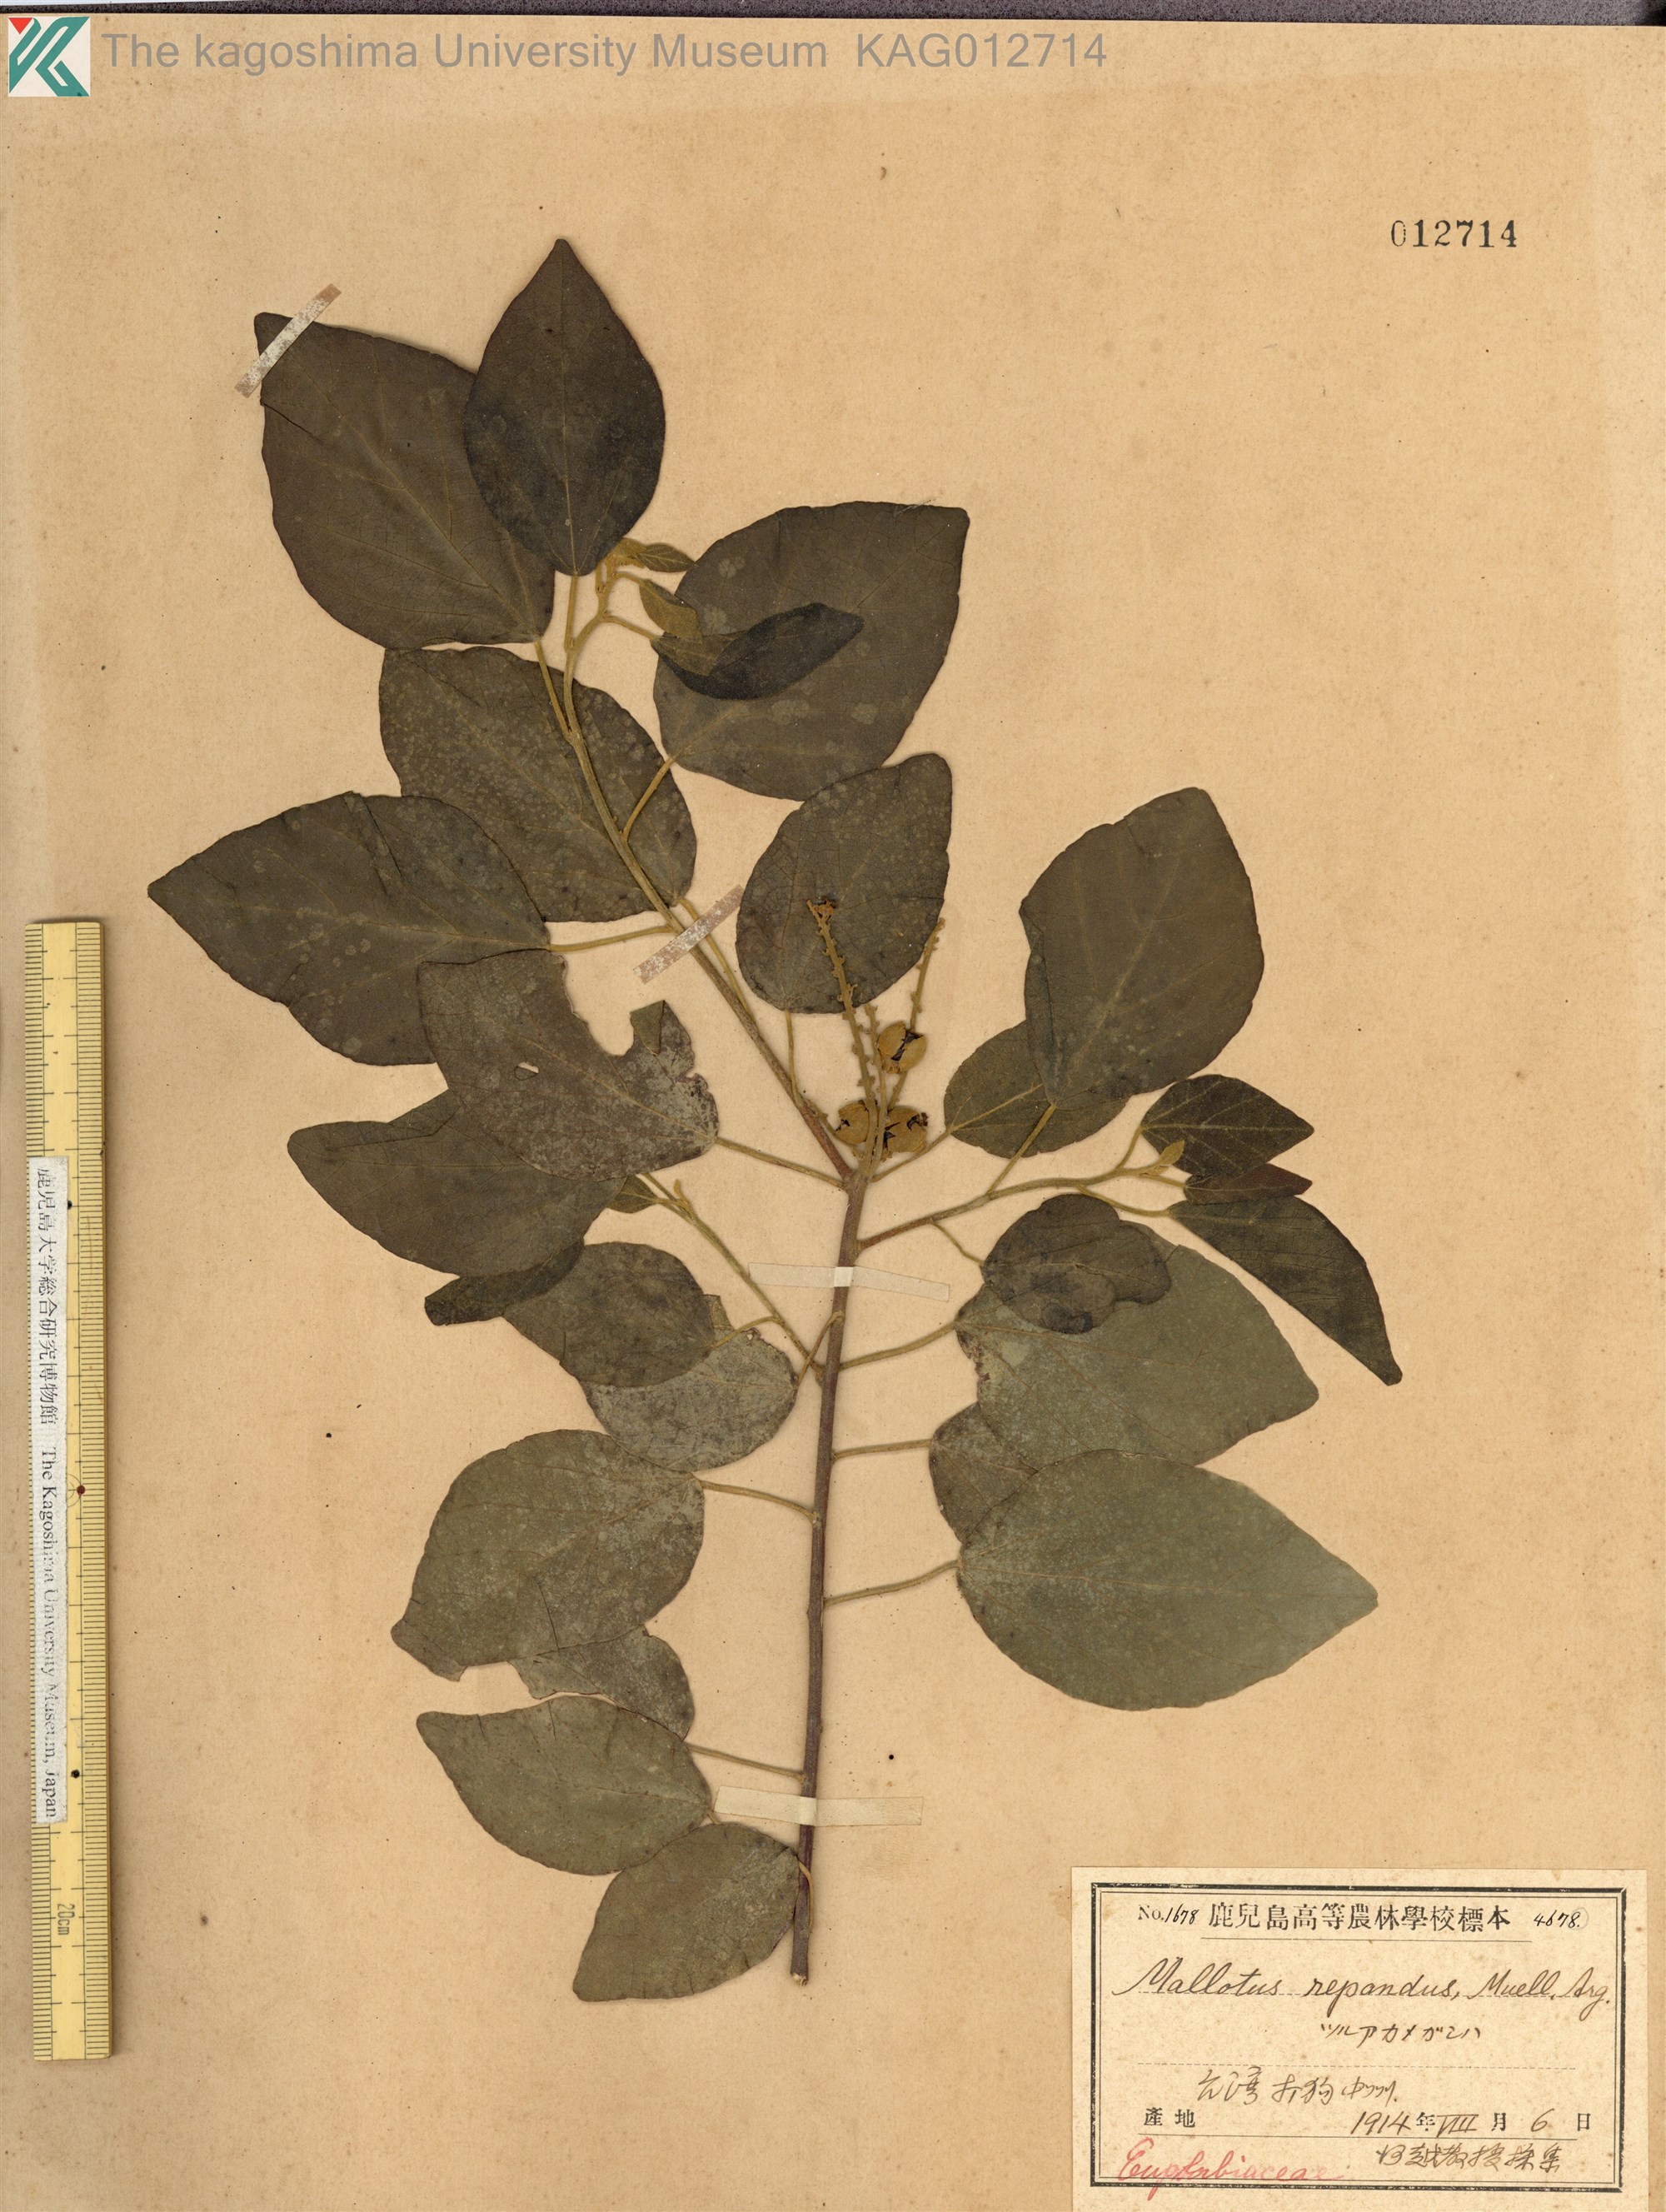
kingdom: Plantae
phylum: Tracheophyta
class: Magnoliopsida
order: Malpighiales
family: Euphorbiaceae
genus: Mallotus
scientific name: Mallotus repandus
